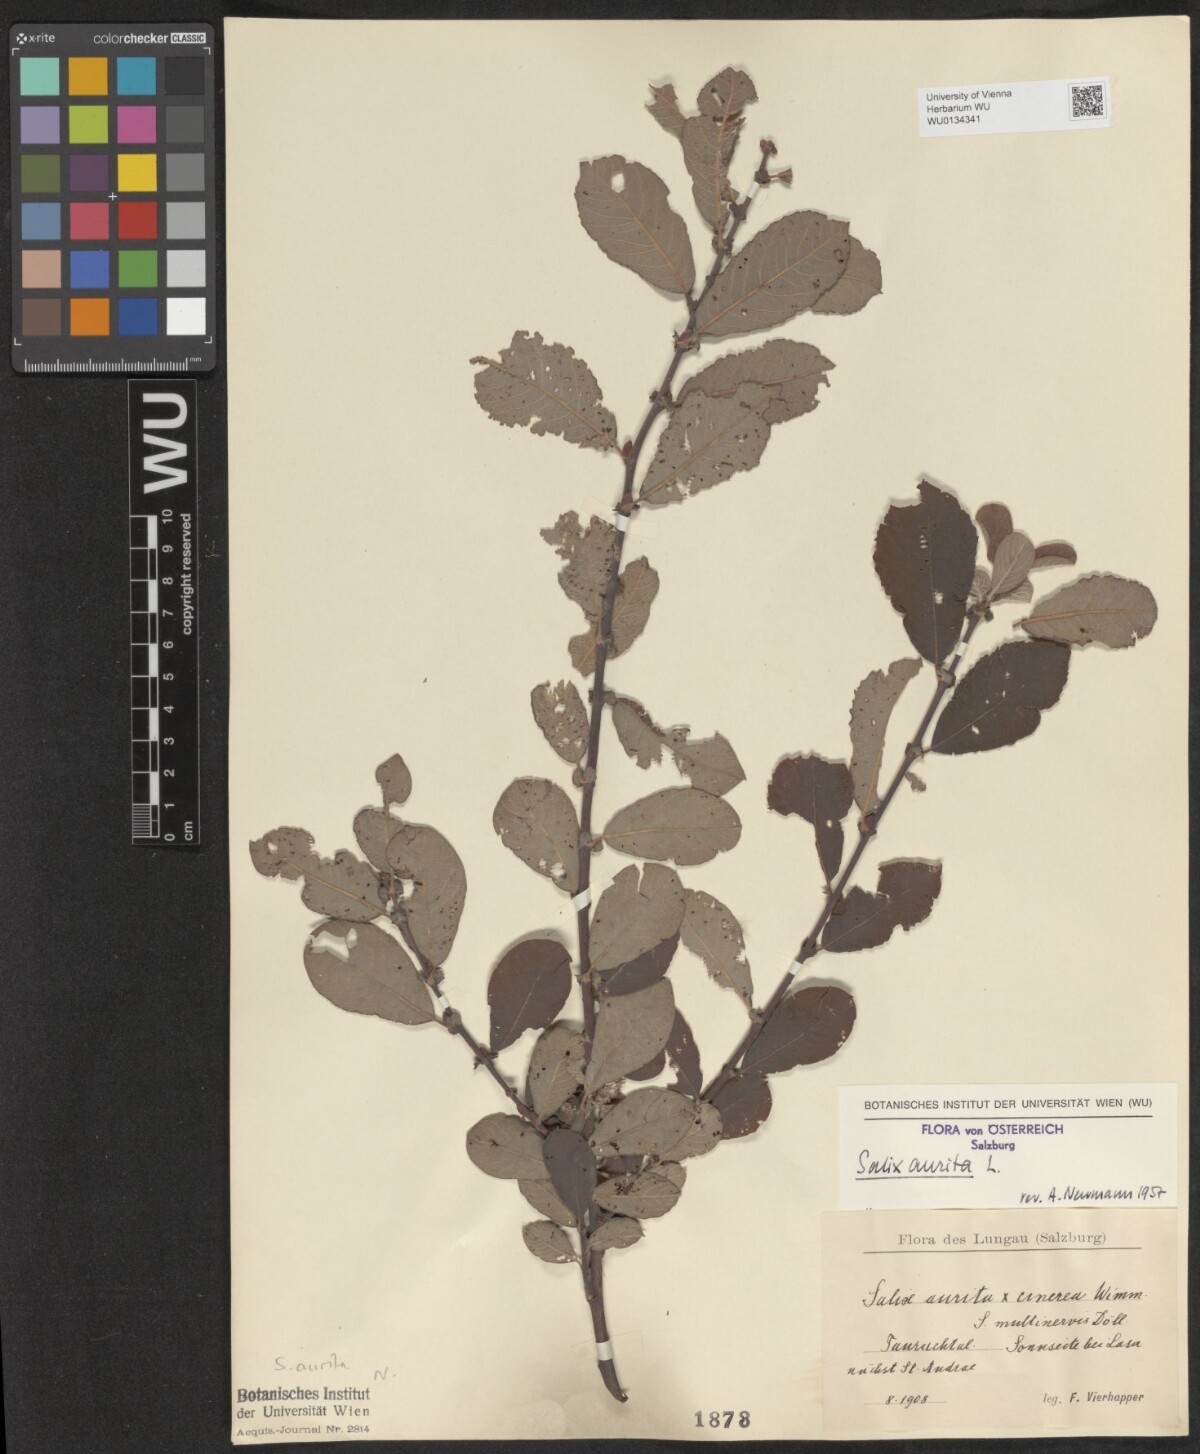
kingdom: Plantae
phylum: Tracheophyta
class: Magnoliopsida
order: Malpighiales
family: Salicaceae
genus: Salix
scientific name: Salix aurita
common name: Eared willow
